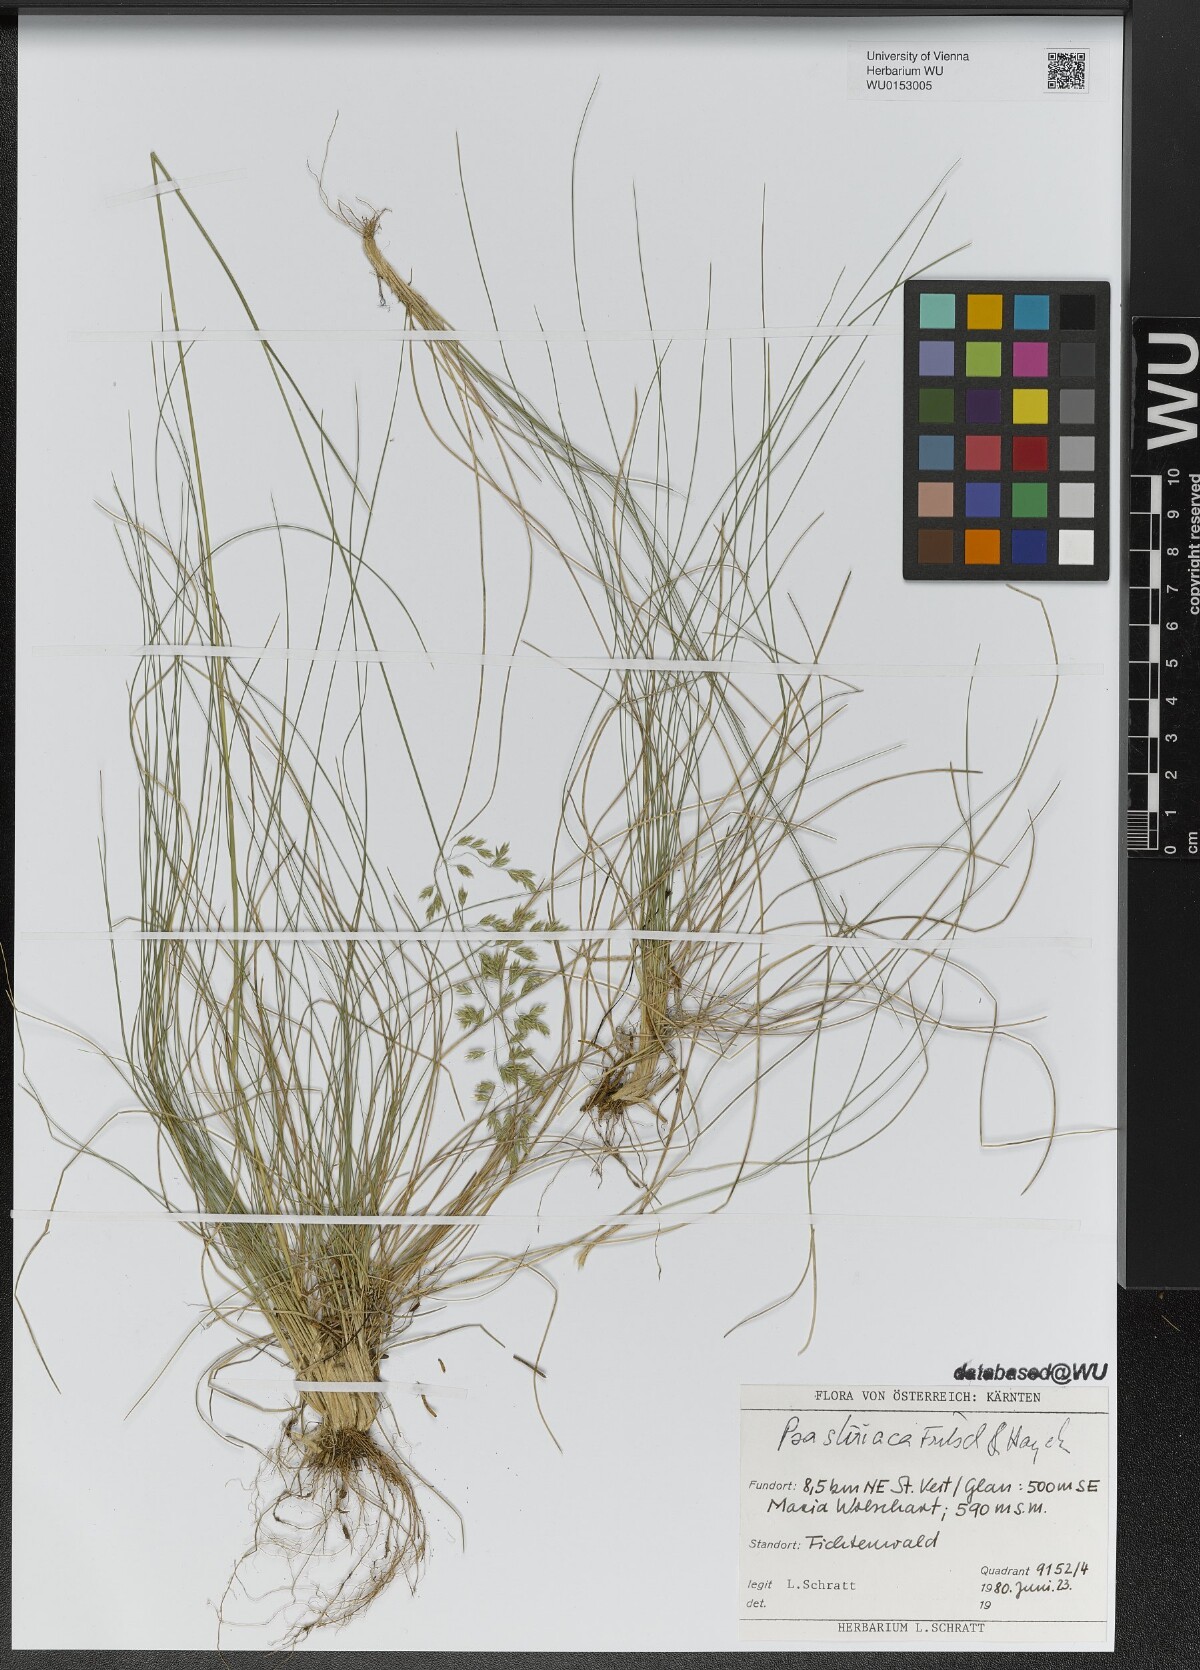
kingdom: Plantae
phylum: Tracheophyta
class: Liliopsida
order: Poales
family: Poaceae
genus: Poa
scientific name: Poa stiriaca
